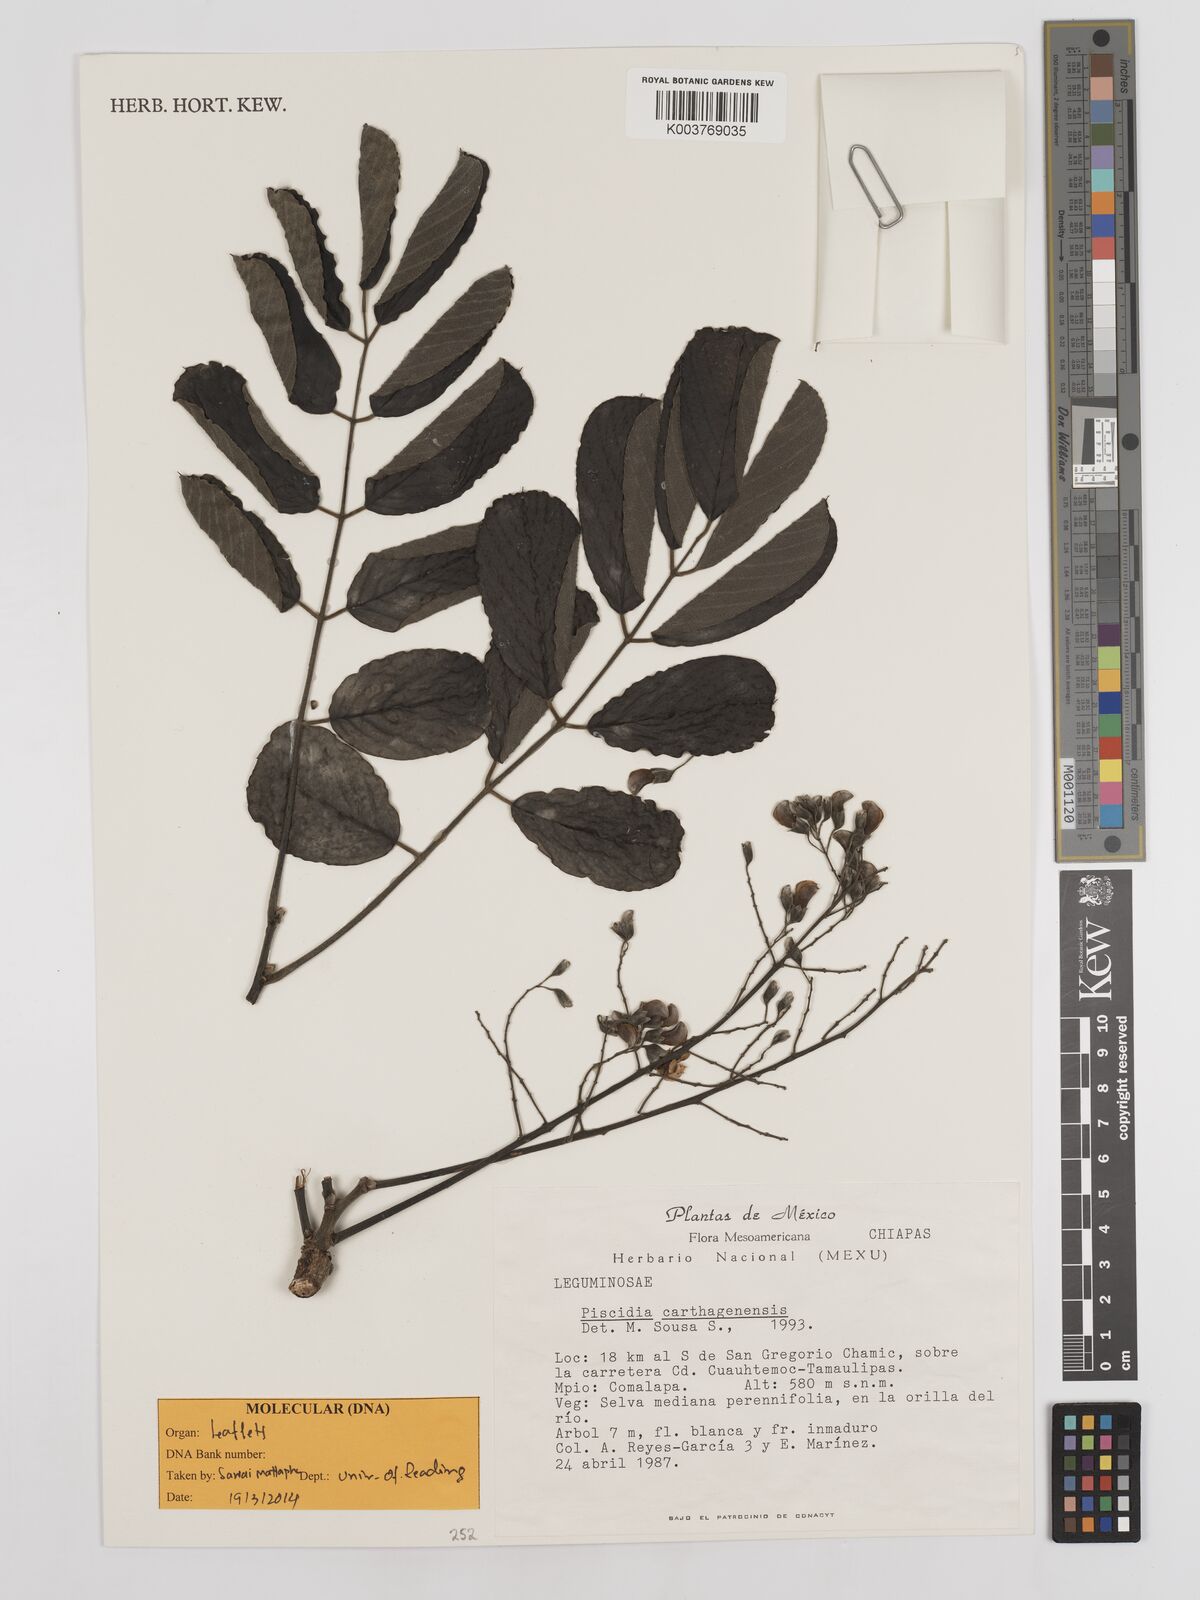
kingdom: Plantae
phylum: Tracheophyta
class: Magnoliopsida
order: Fabales
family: Fabaceae
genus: Piscidia
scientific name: Piscidia carthagenensis
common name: Stinkwood
